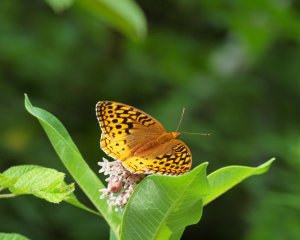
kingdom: Animalia
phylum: Arthropoda
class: Insecta
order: Lepidoptera
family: Nymphalidae
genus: Speyeria
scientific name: Speyeria cybele
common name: Great Spangled Fritillary
